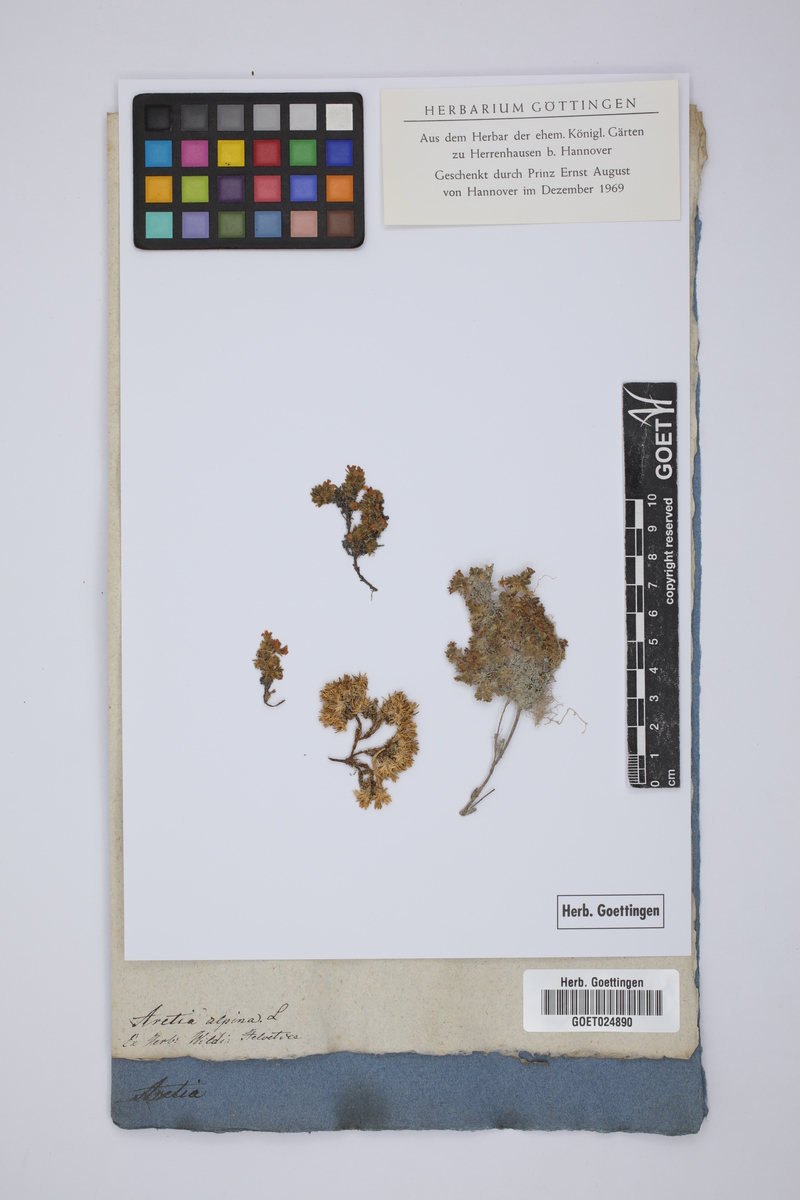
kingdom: Plantae
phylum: Tracheophyta
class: Magnoliopsida
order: Ericales
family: Primulaceae
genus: Androsace
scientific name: Androsace alpina
